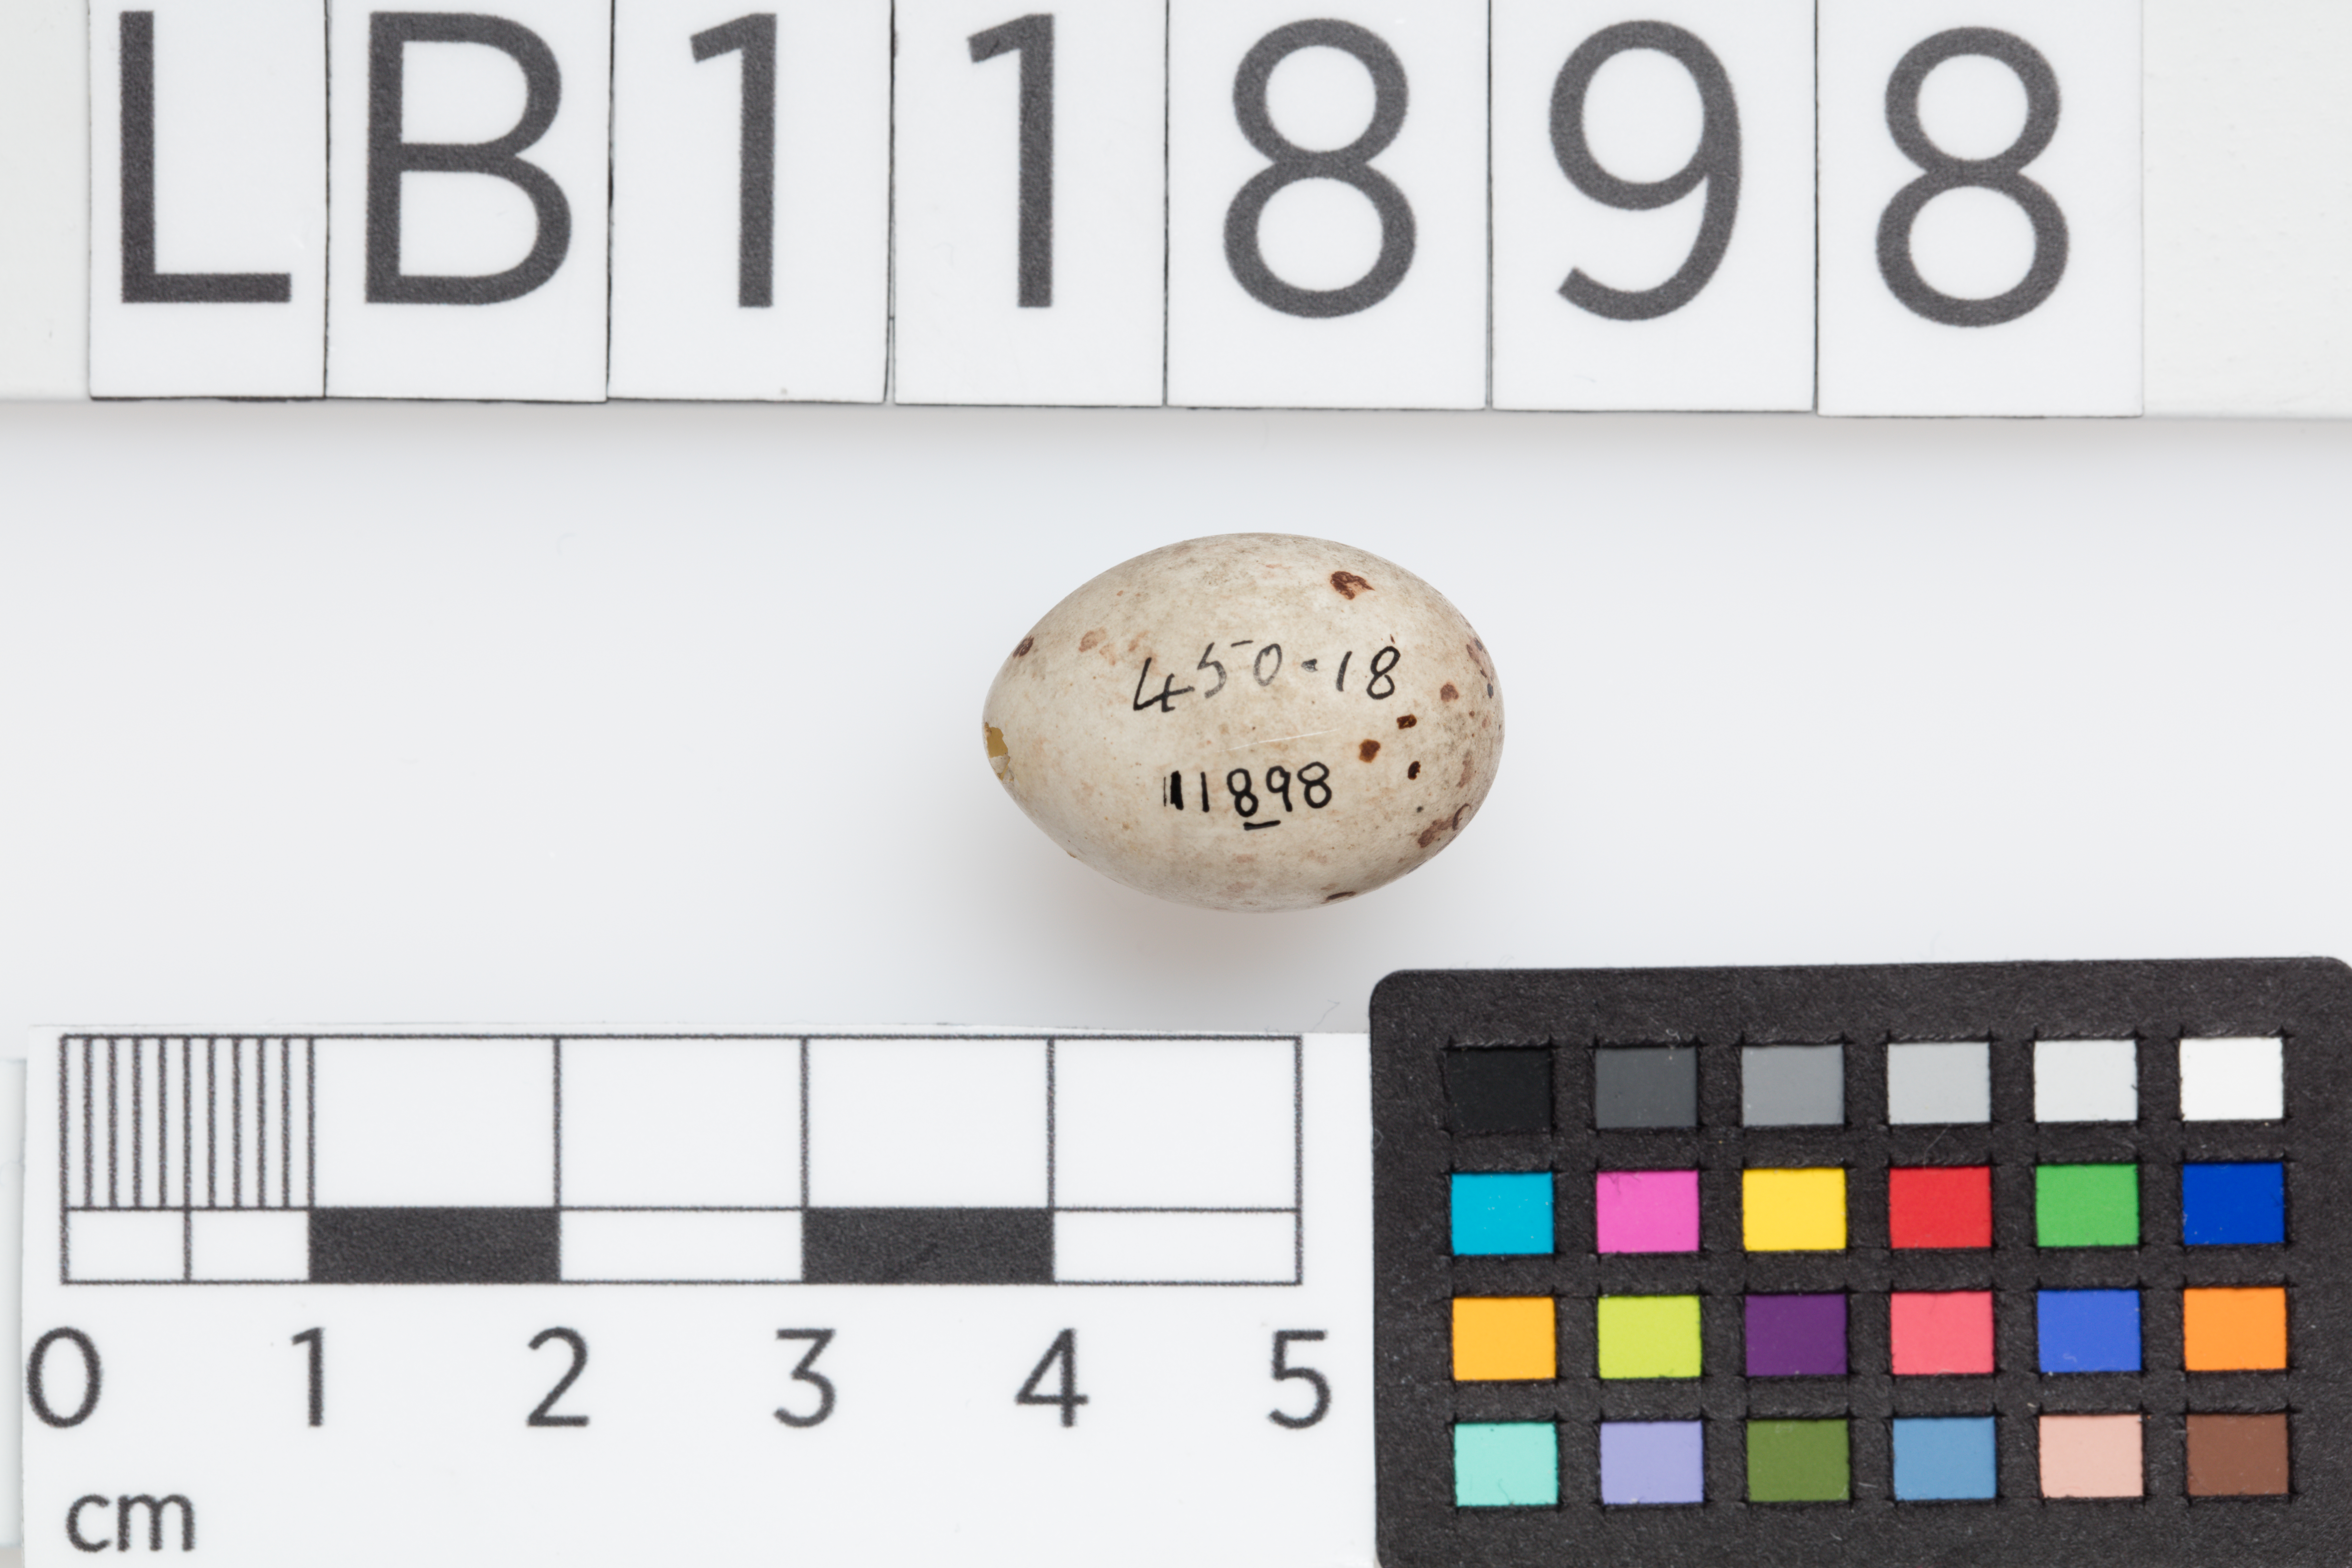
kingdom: Animalia
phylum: Chordata
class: Aves
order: Passeriformes
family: Fringillidae
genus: Linaria
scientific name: Linaria cannabina
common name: Common linnet
